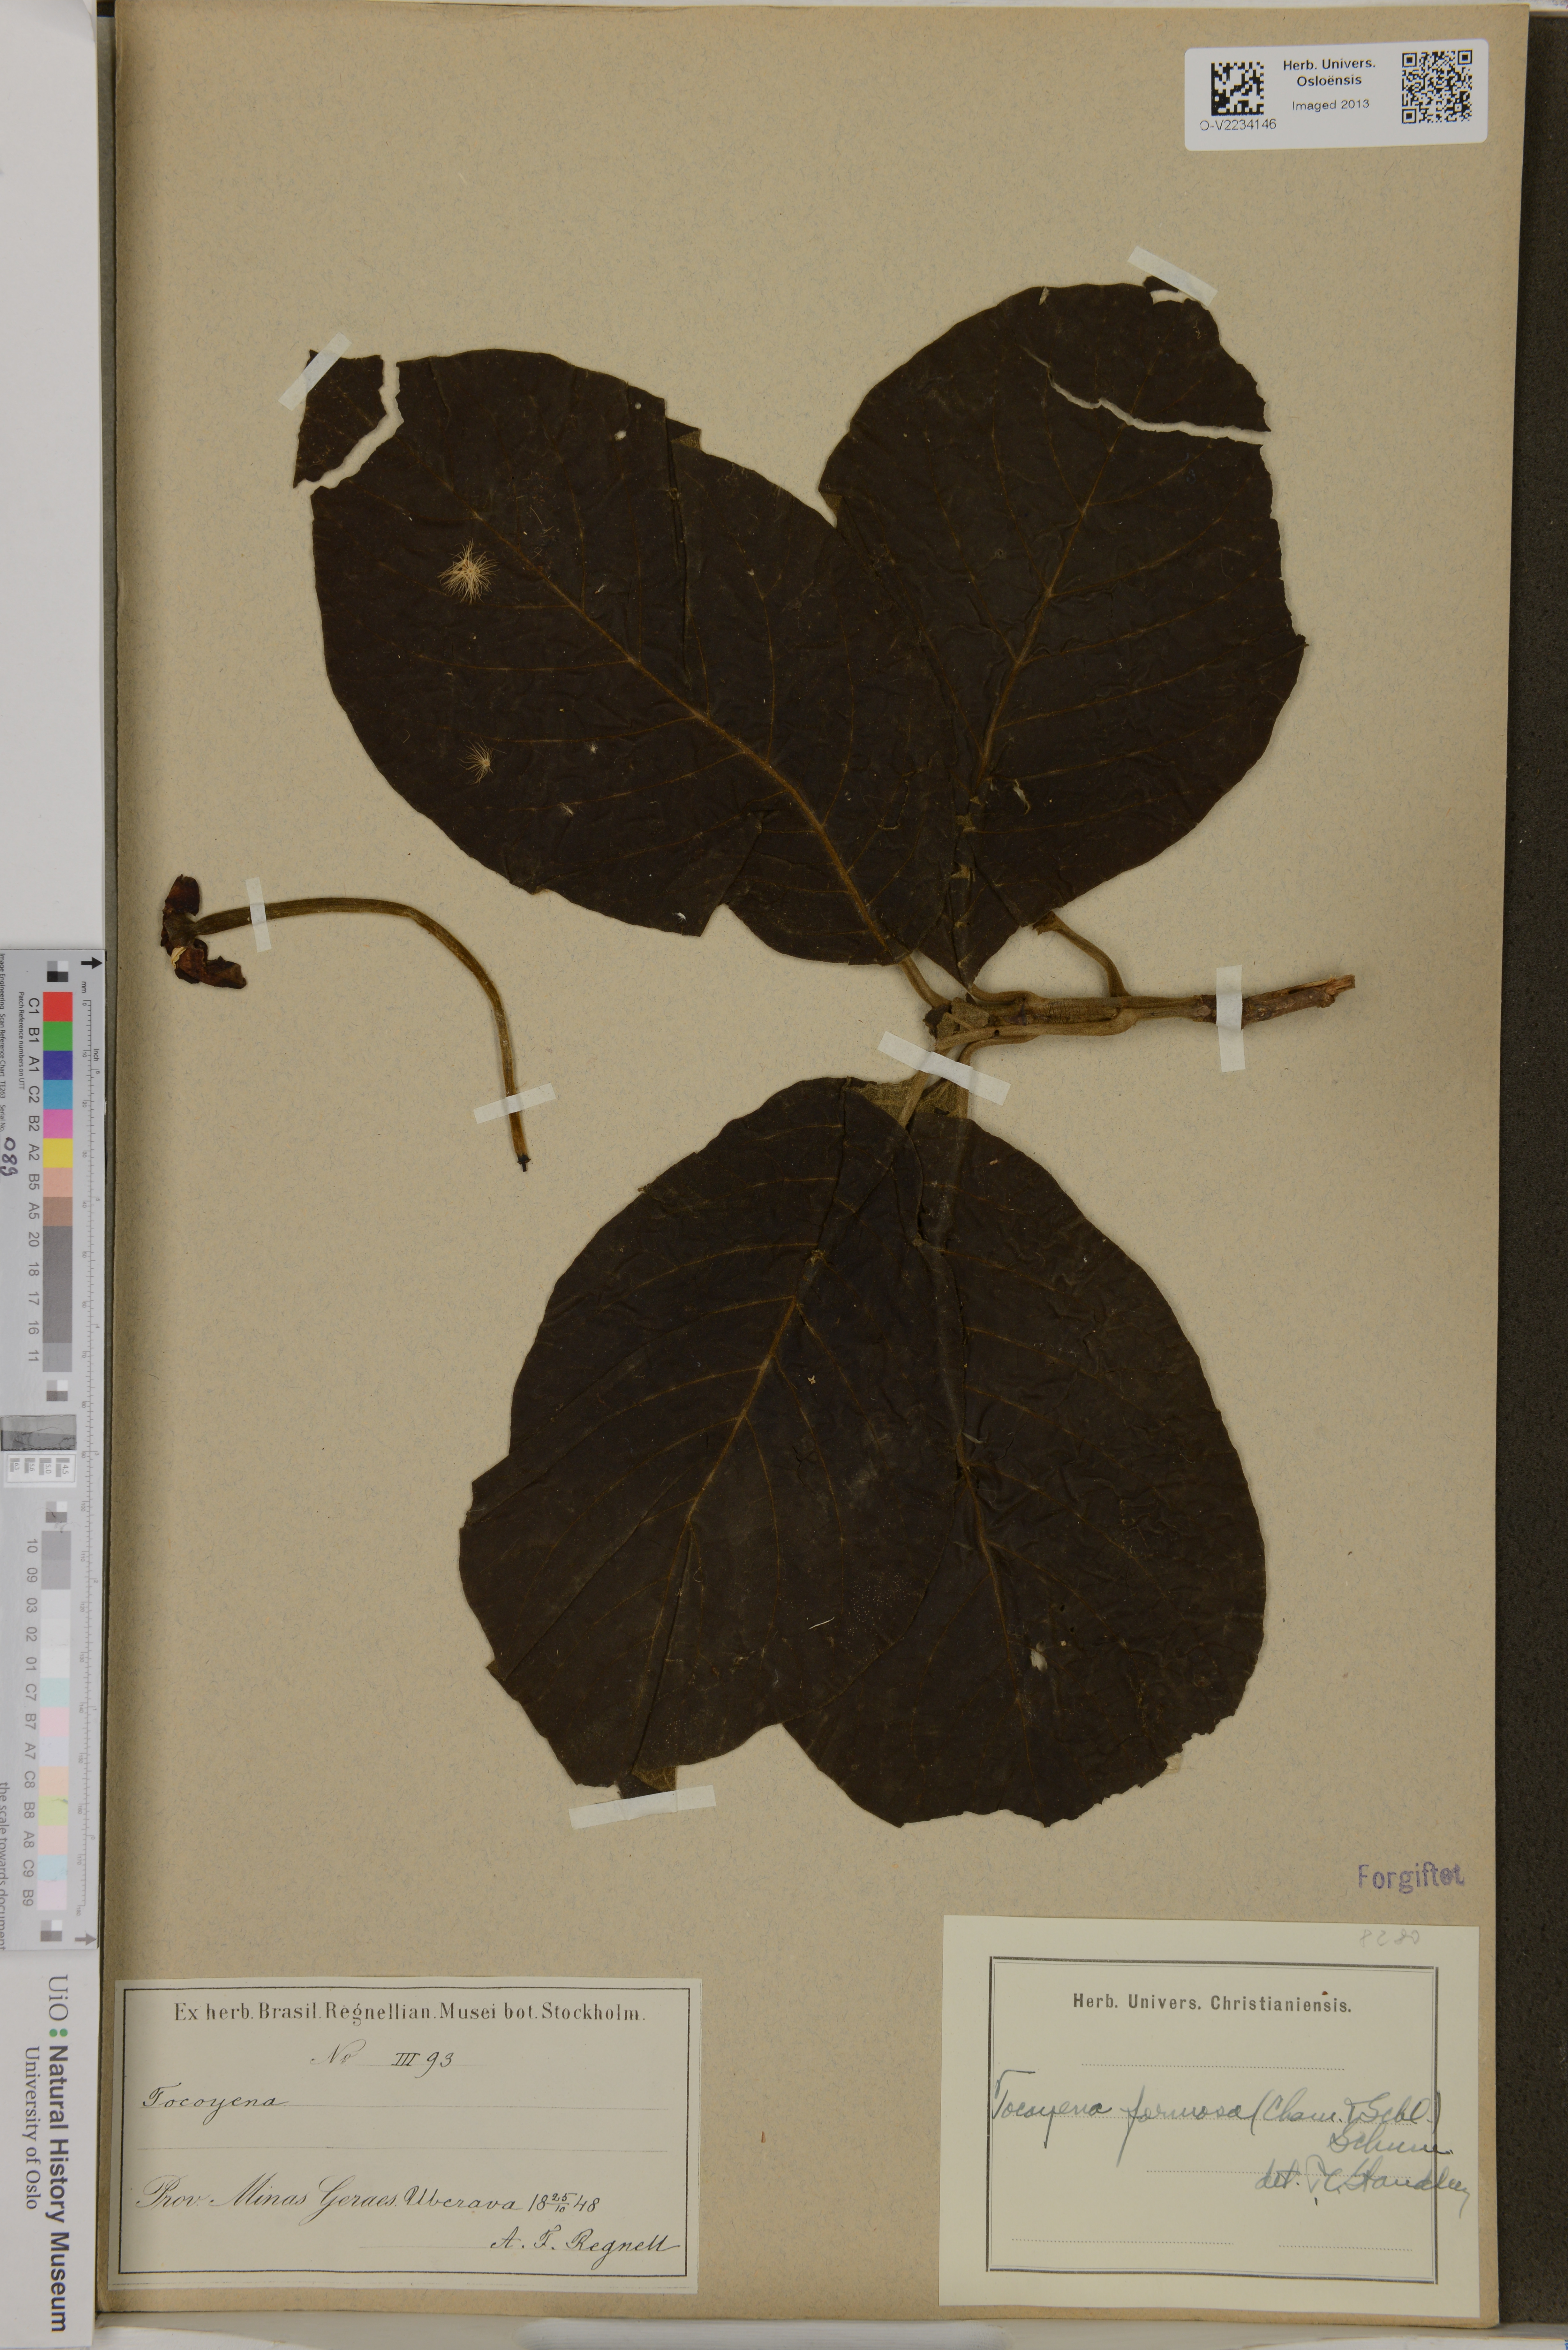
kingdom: Plantae
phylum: Tracheophyta
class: Magnoliopsida
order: Gentianales
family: Rubiaceae
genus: Tocoyena
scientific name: Tocoyena formosa
